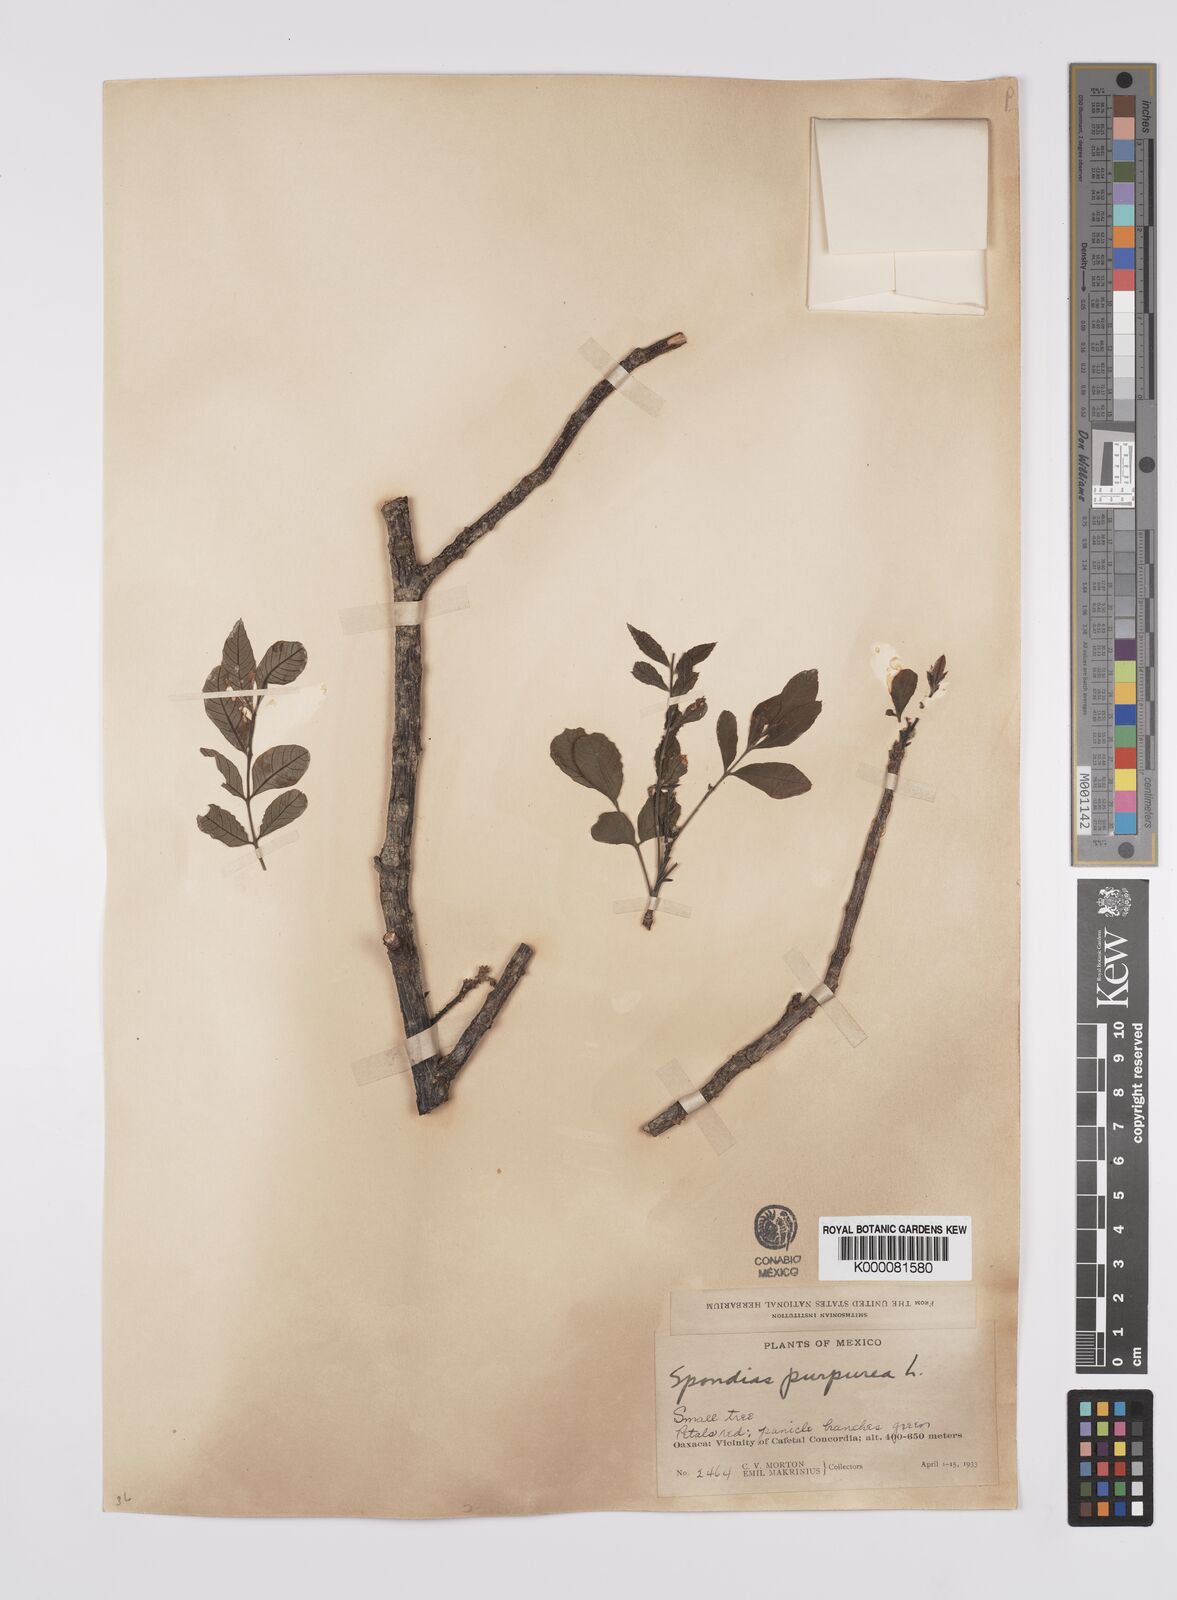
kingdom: Plantae
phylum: Tracheophyta
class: Magnoliopsida
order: Sapindales
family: Anacardiaceae
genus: Spondias
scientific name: Spondias purpurea
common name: Purple mombin
